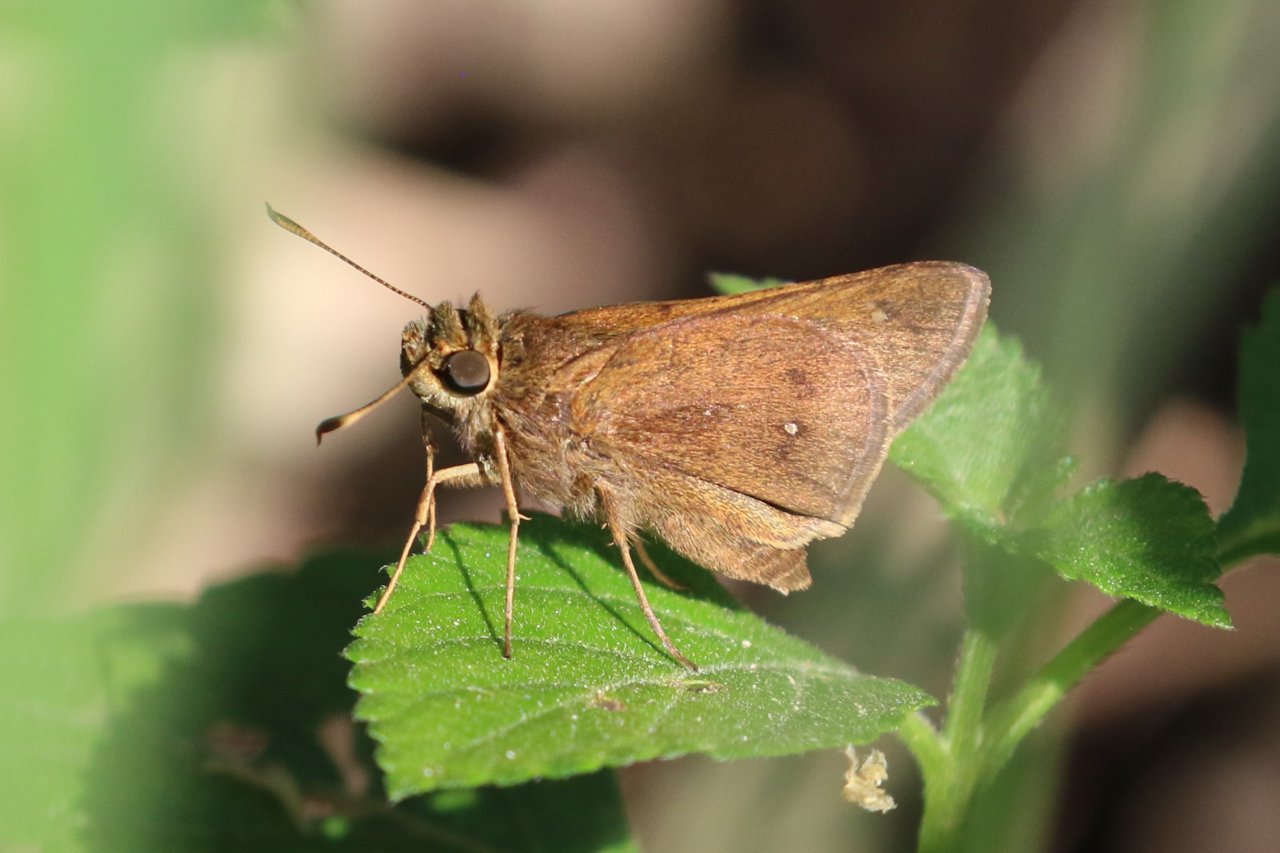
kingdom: Animalia
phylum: Arthropoda
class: Insecta
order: Lepidoptera
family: Hesperiidae
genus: Decinea
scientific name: Decinea percosius
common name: Double-dotted Skipper
